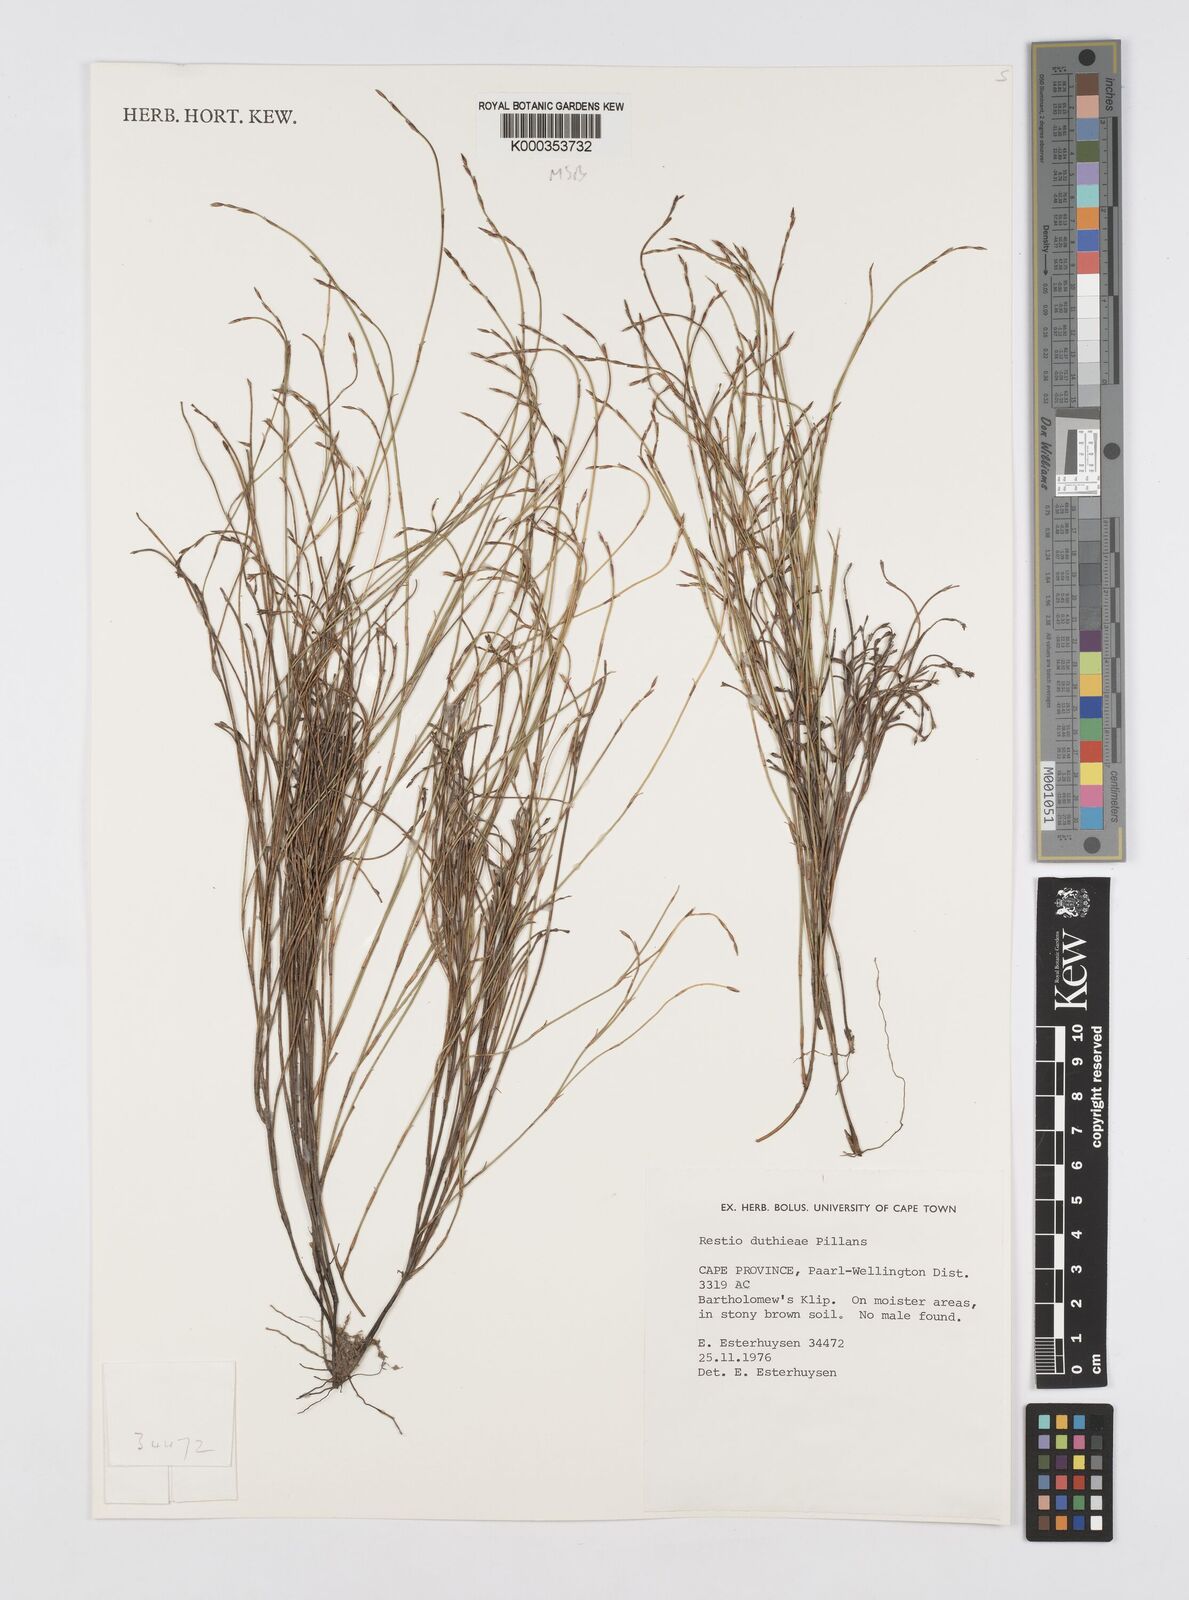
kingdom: Plantae
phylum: Tracheophyta
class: Liliopsida
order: Poales
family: Restionaceae
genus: Restio
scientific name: Restio duthieae
